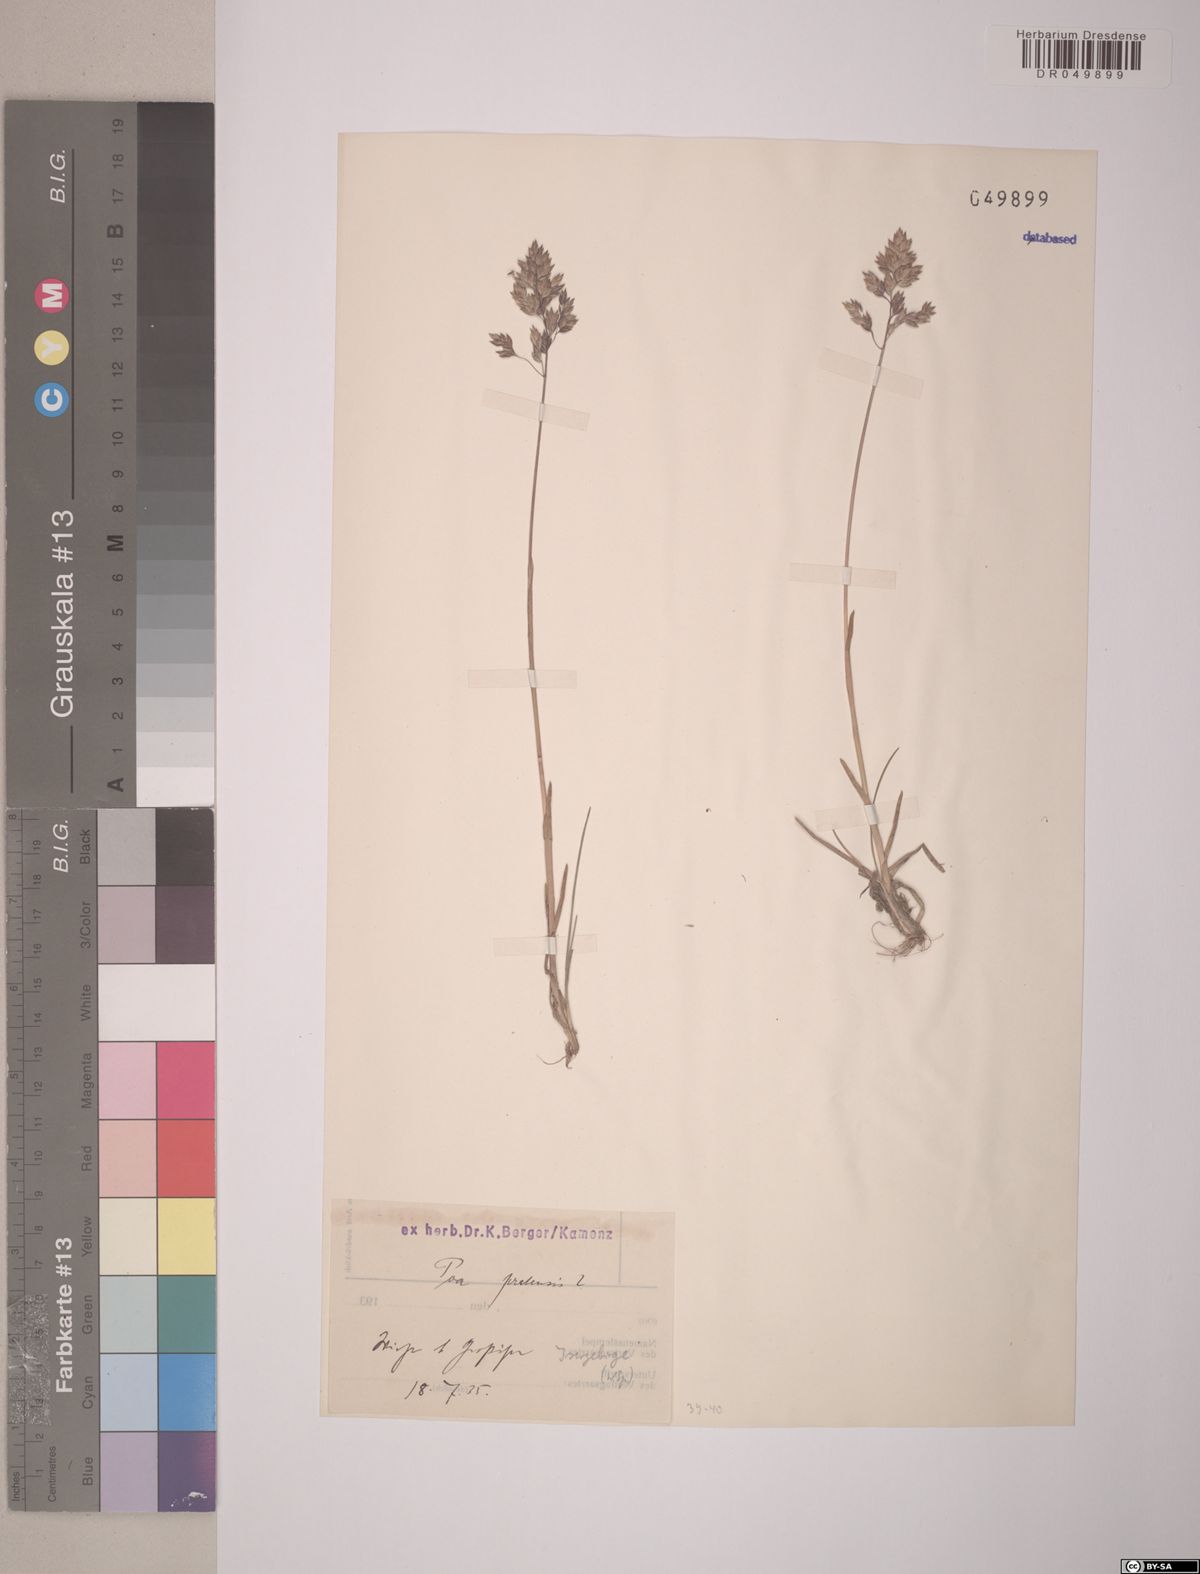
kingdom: Plantae
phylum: Tracheophyta
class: Liliopsida
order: Poales
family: Poaceae
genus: Poa
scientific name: Poa pratensis
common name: Kentucky bluegrass
